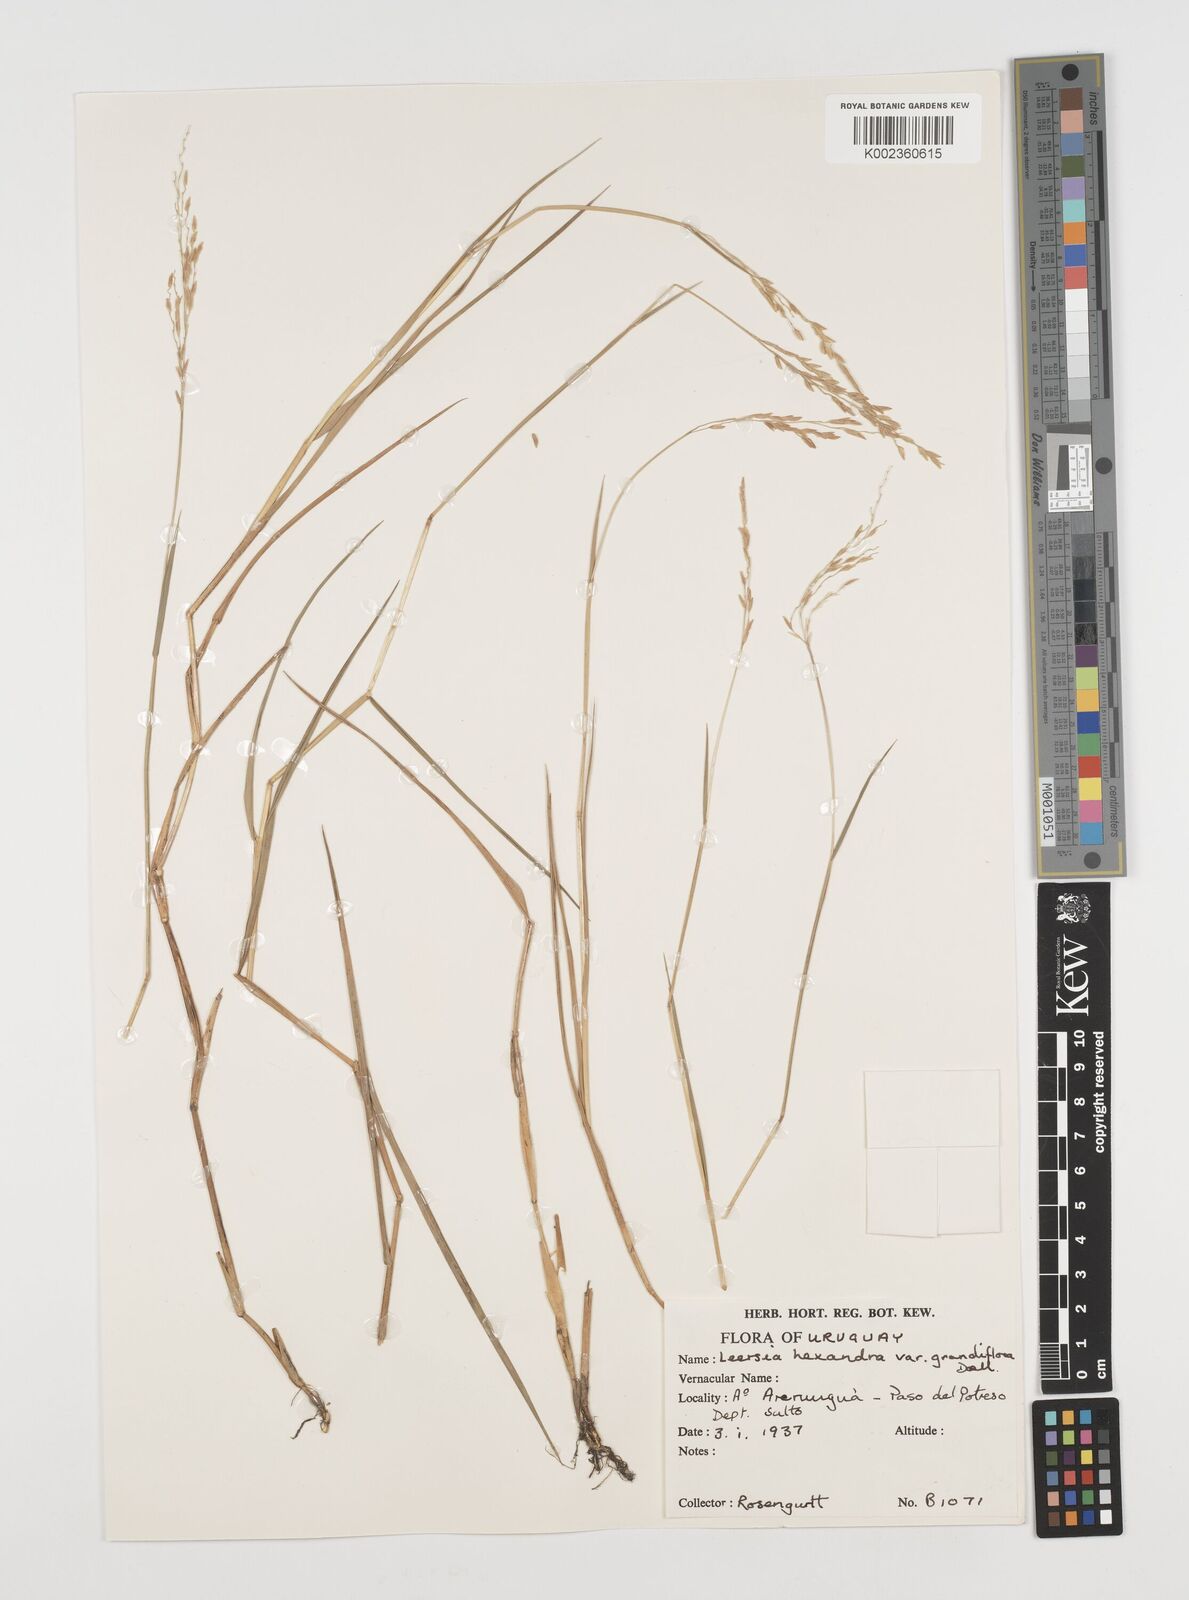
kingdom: Plantae
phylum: Tracheophyta
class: Liliopsida
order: Poales
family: Poaceae
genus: Leersia
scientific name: Leersia hexandra
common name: Southern cut grass
